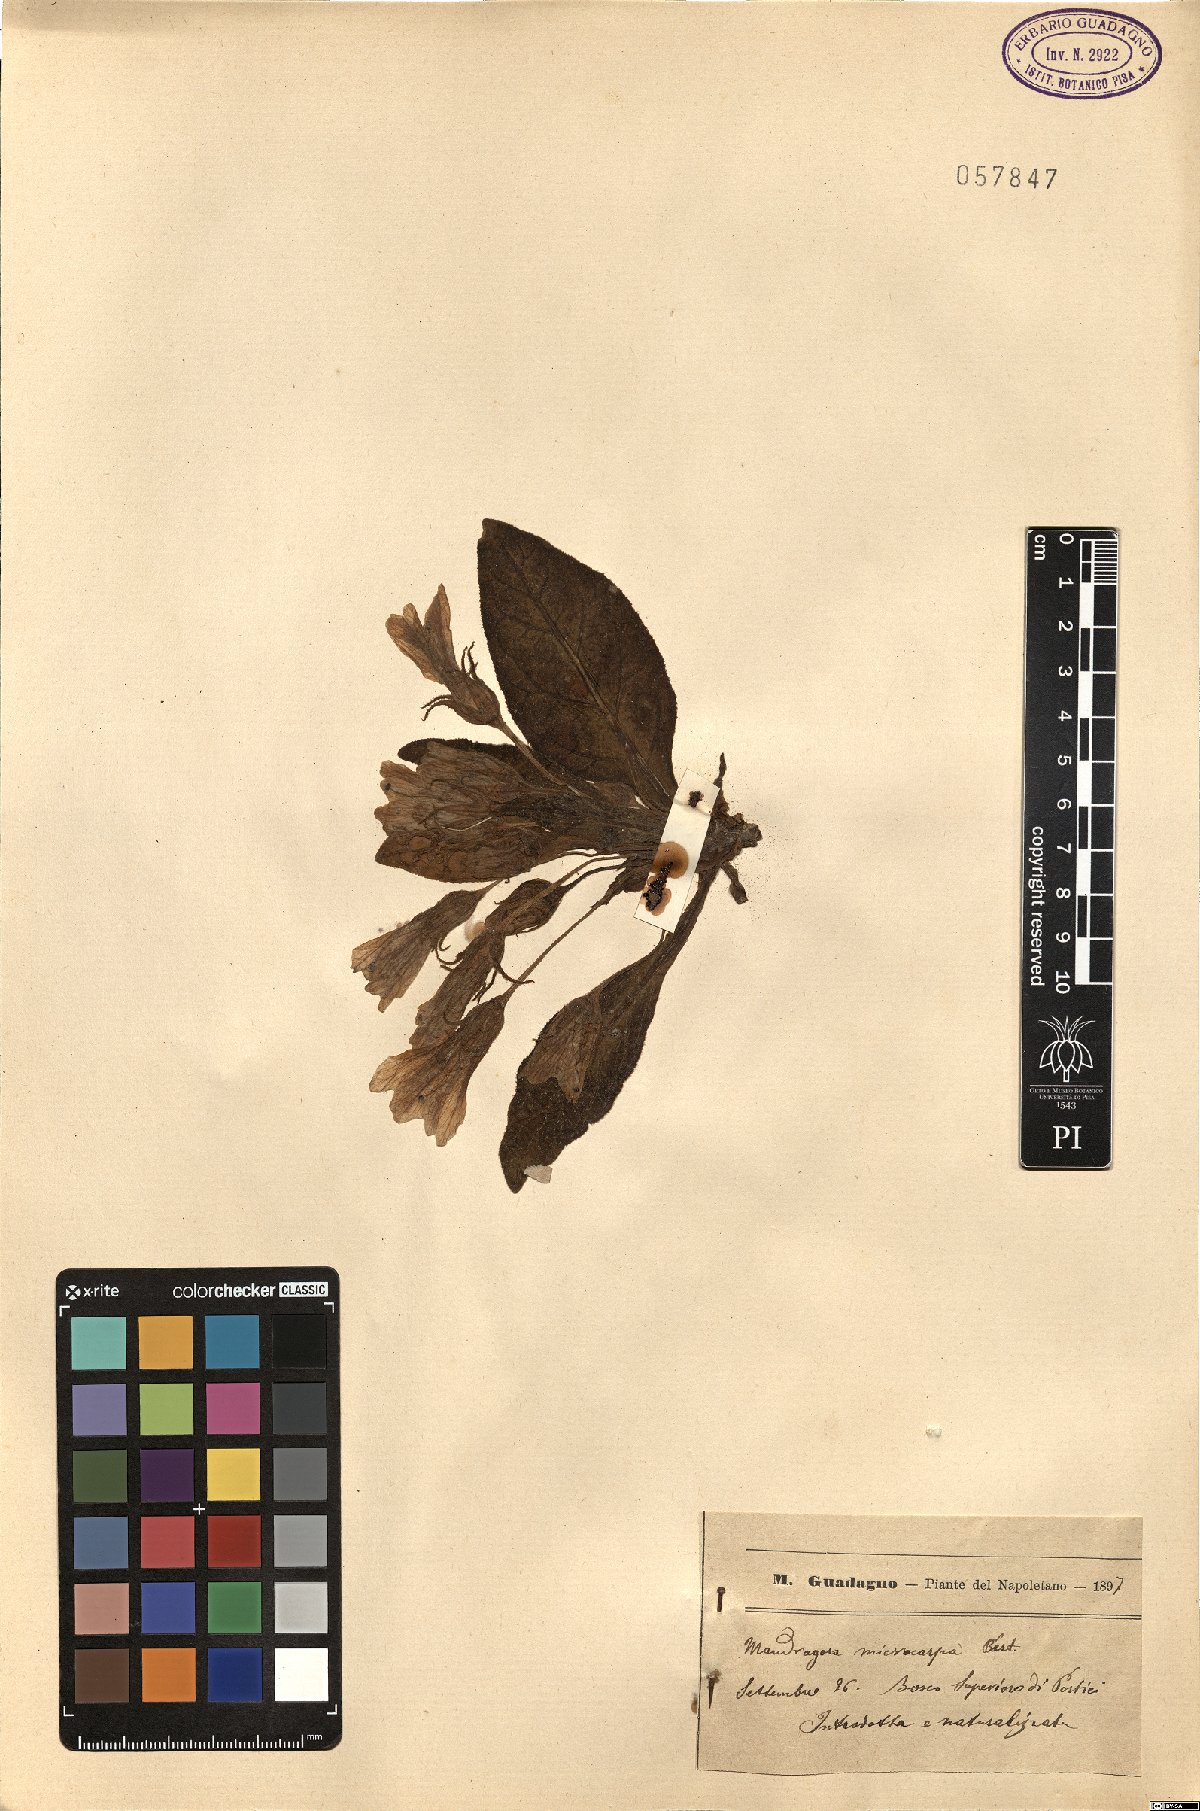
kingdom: Plantae
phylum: Tracheophyta
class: Magnoliopsida
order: Solanales
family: Solanaceae
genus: Mandragora
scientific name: Mandragora officinarum
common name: Mandrake
